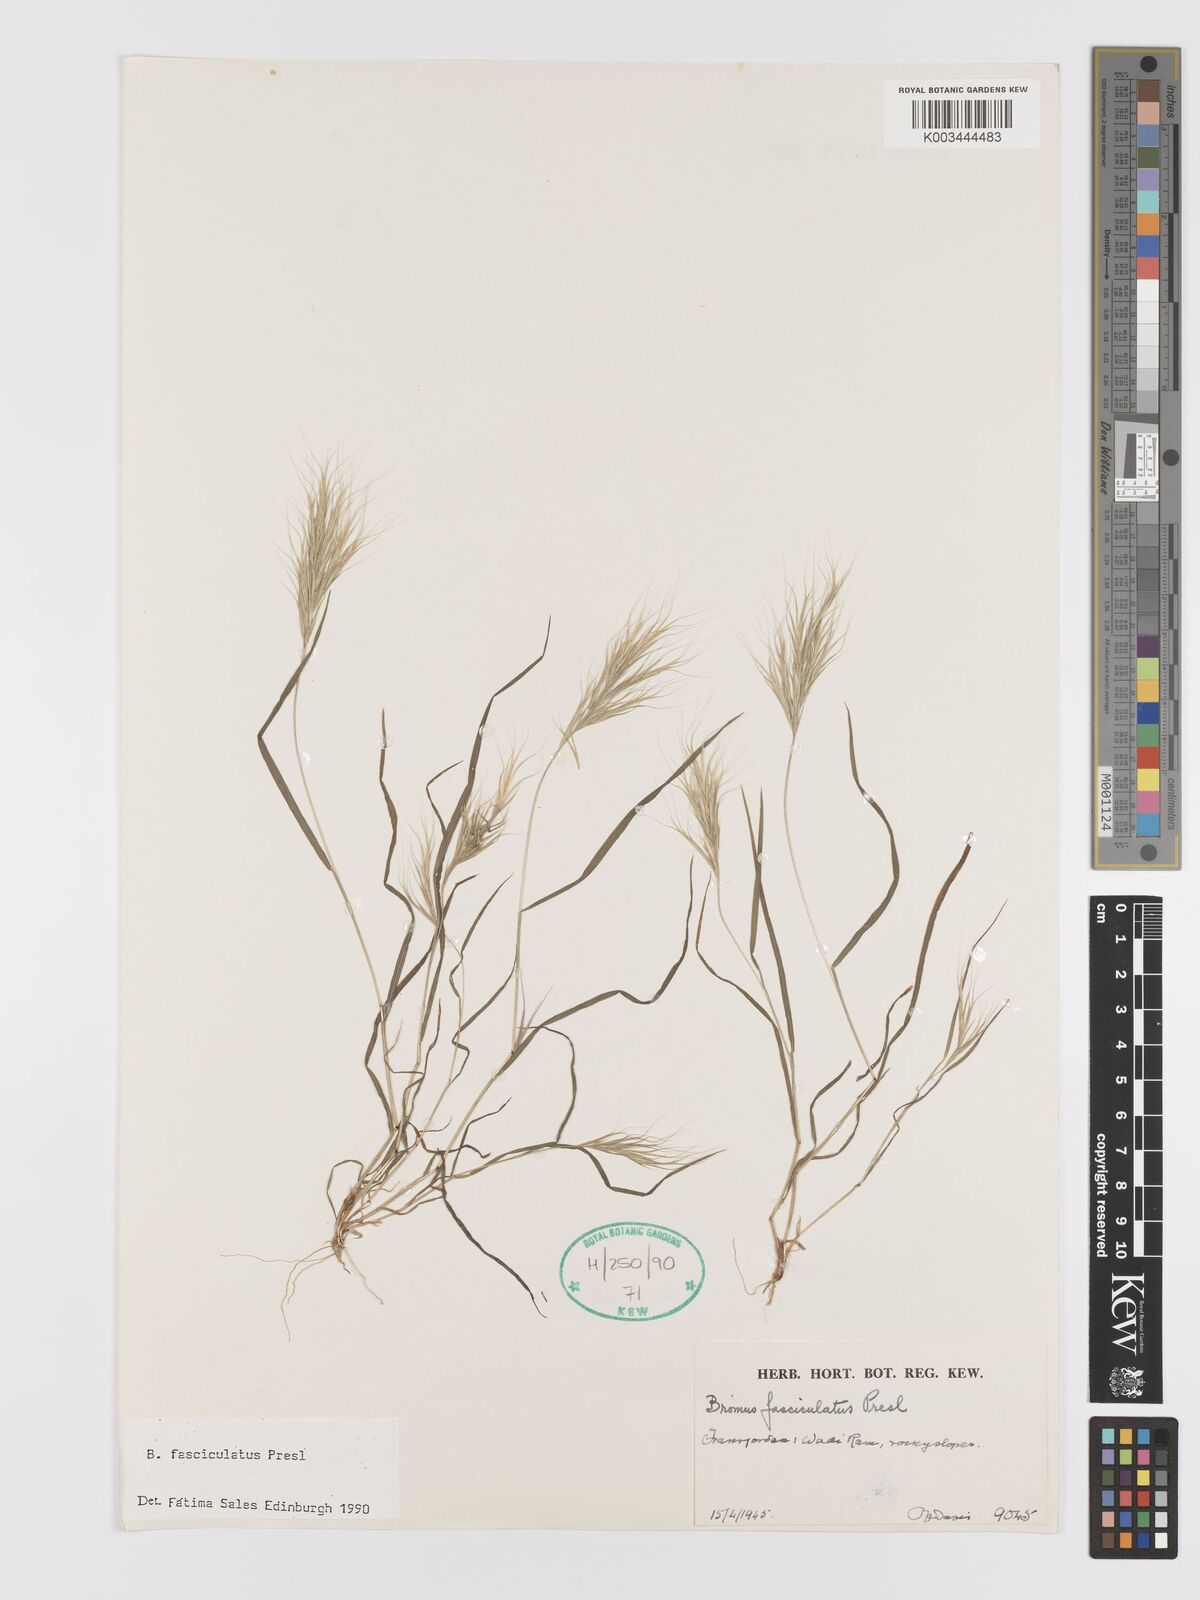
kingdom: Plantae
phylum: Tracheophyta
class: Liliopsida
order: Poales
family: Poaceae
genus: Bromus
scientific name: Bromus fasciculatus
